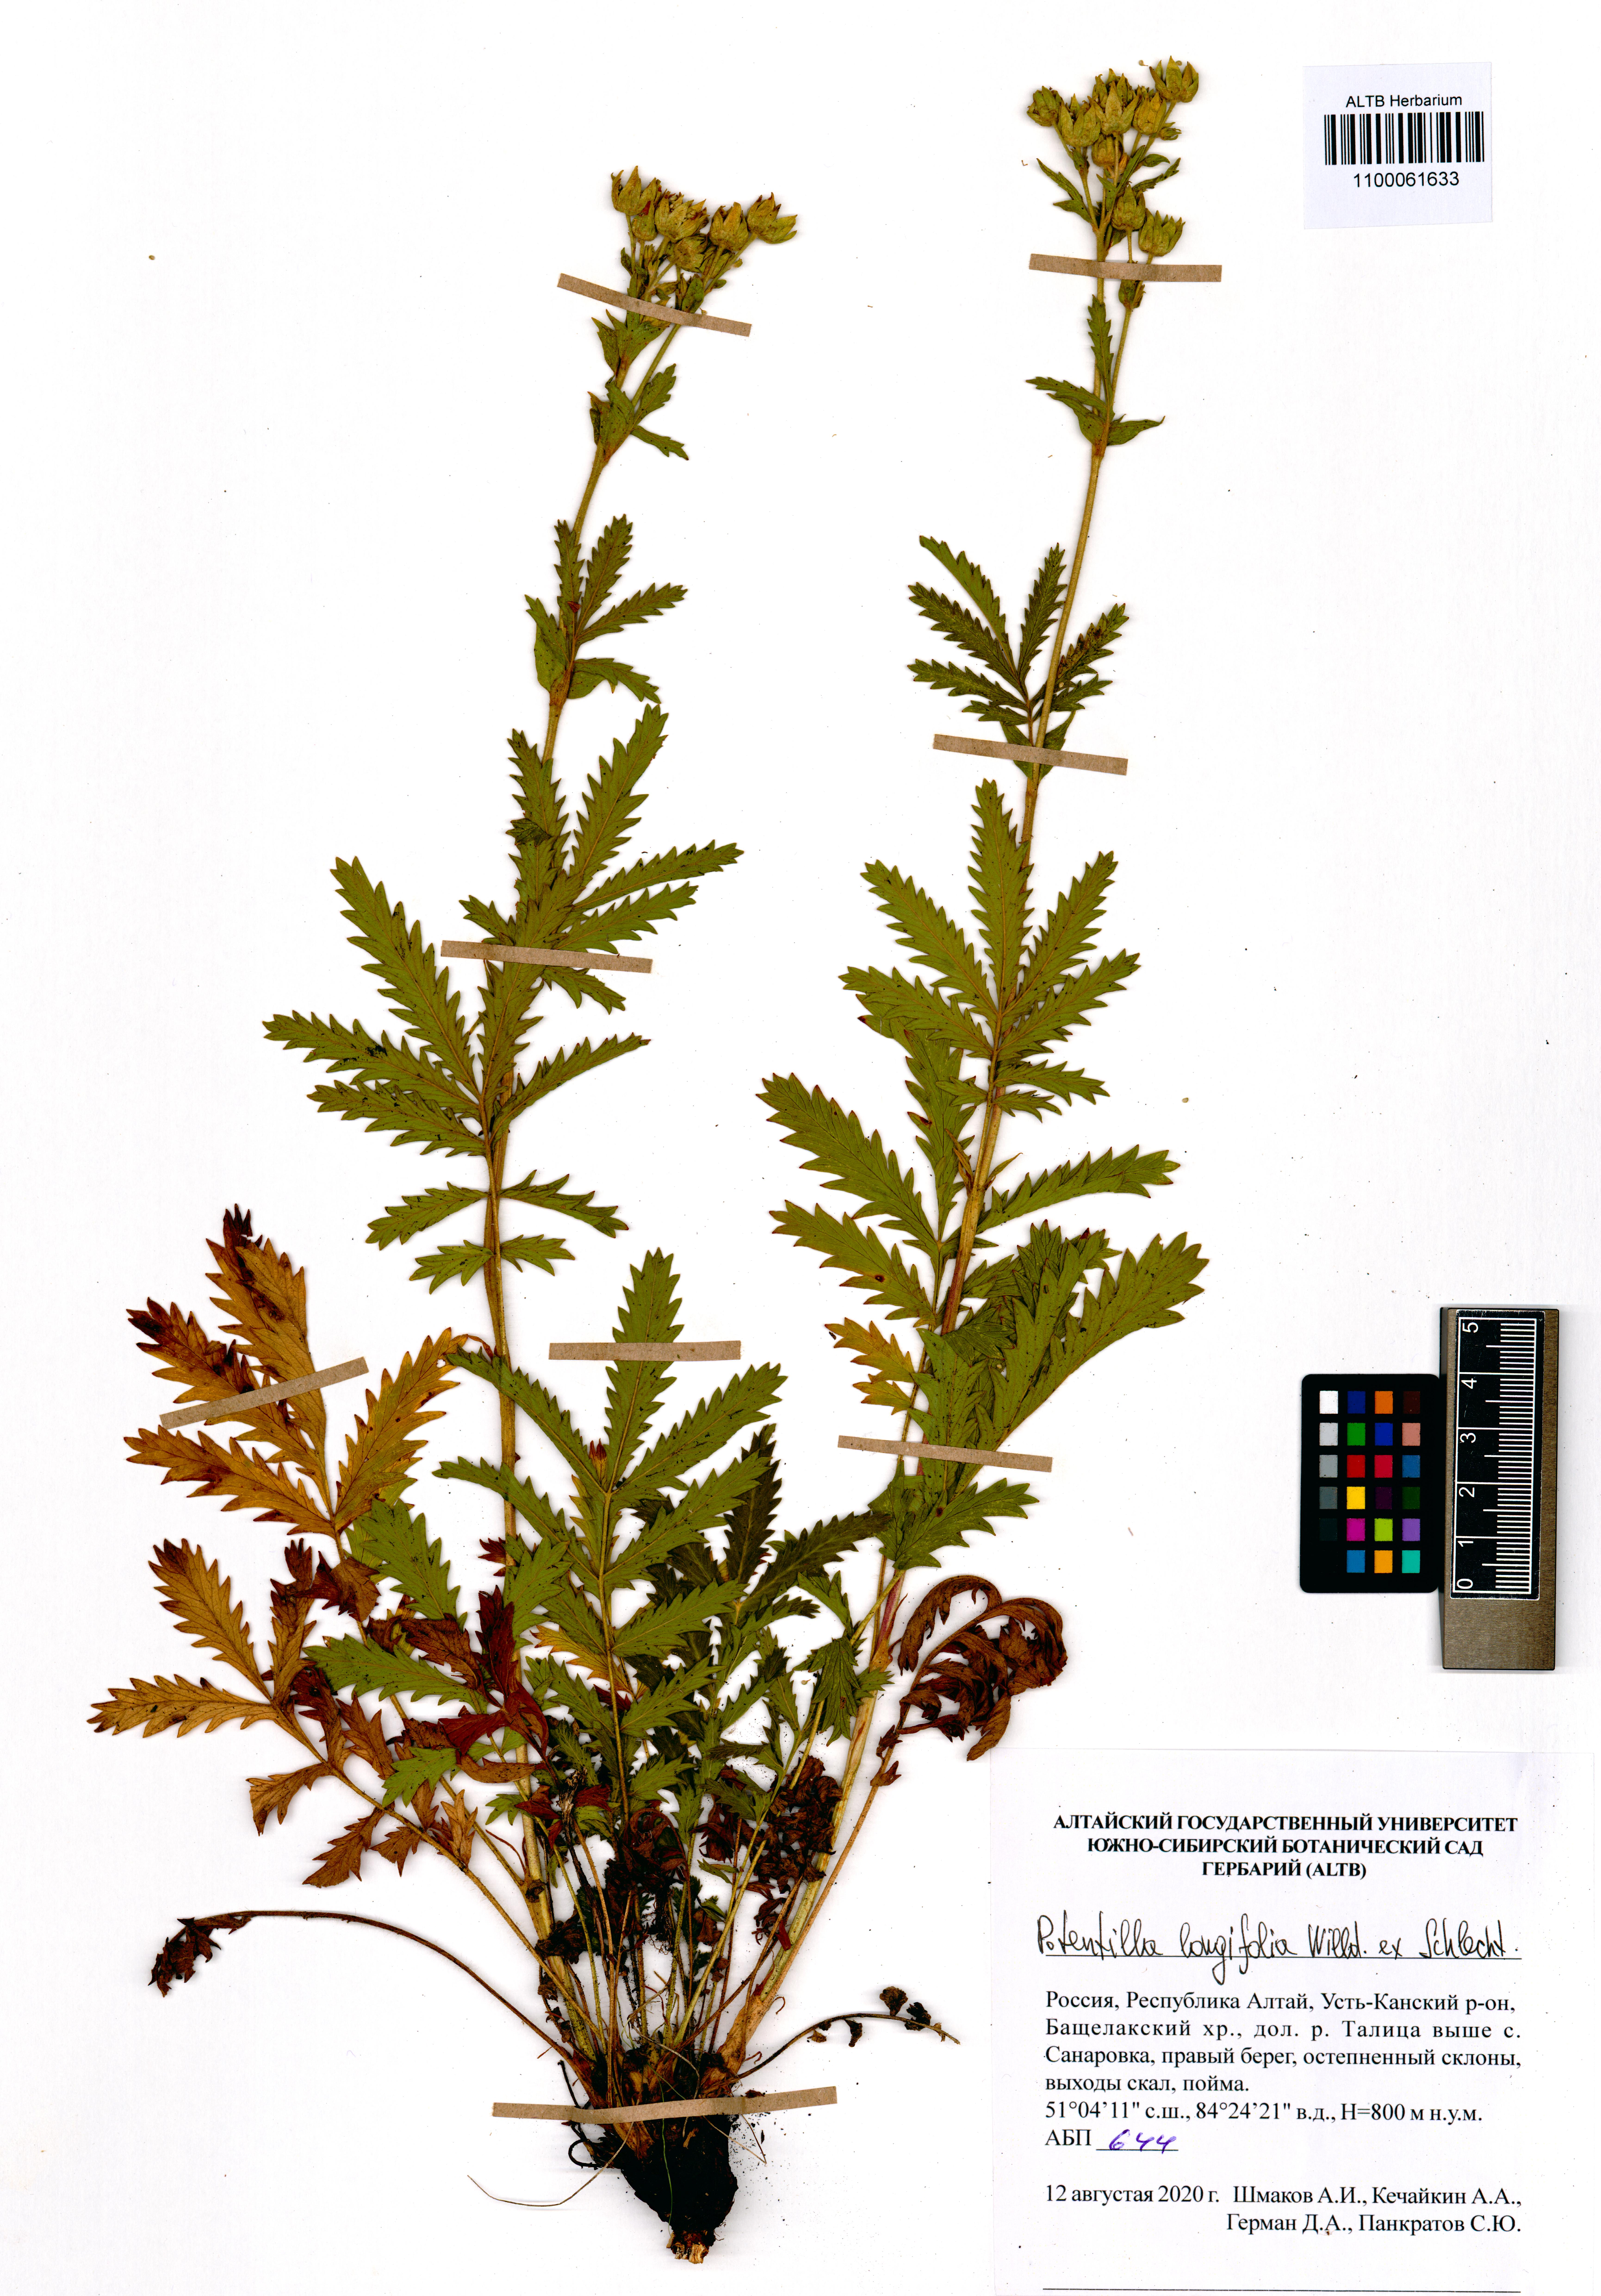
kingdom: Plantae
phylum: Tracheophyta
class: Magnoliopsida
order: Rosales
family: Rosaceae
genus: Potentilla
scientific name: Potentilla longifolia
